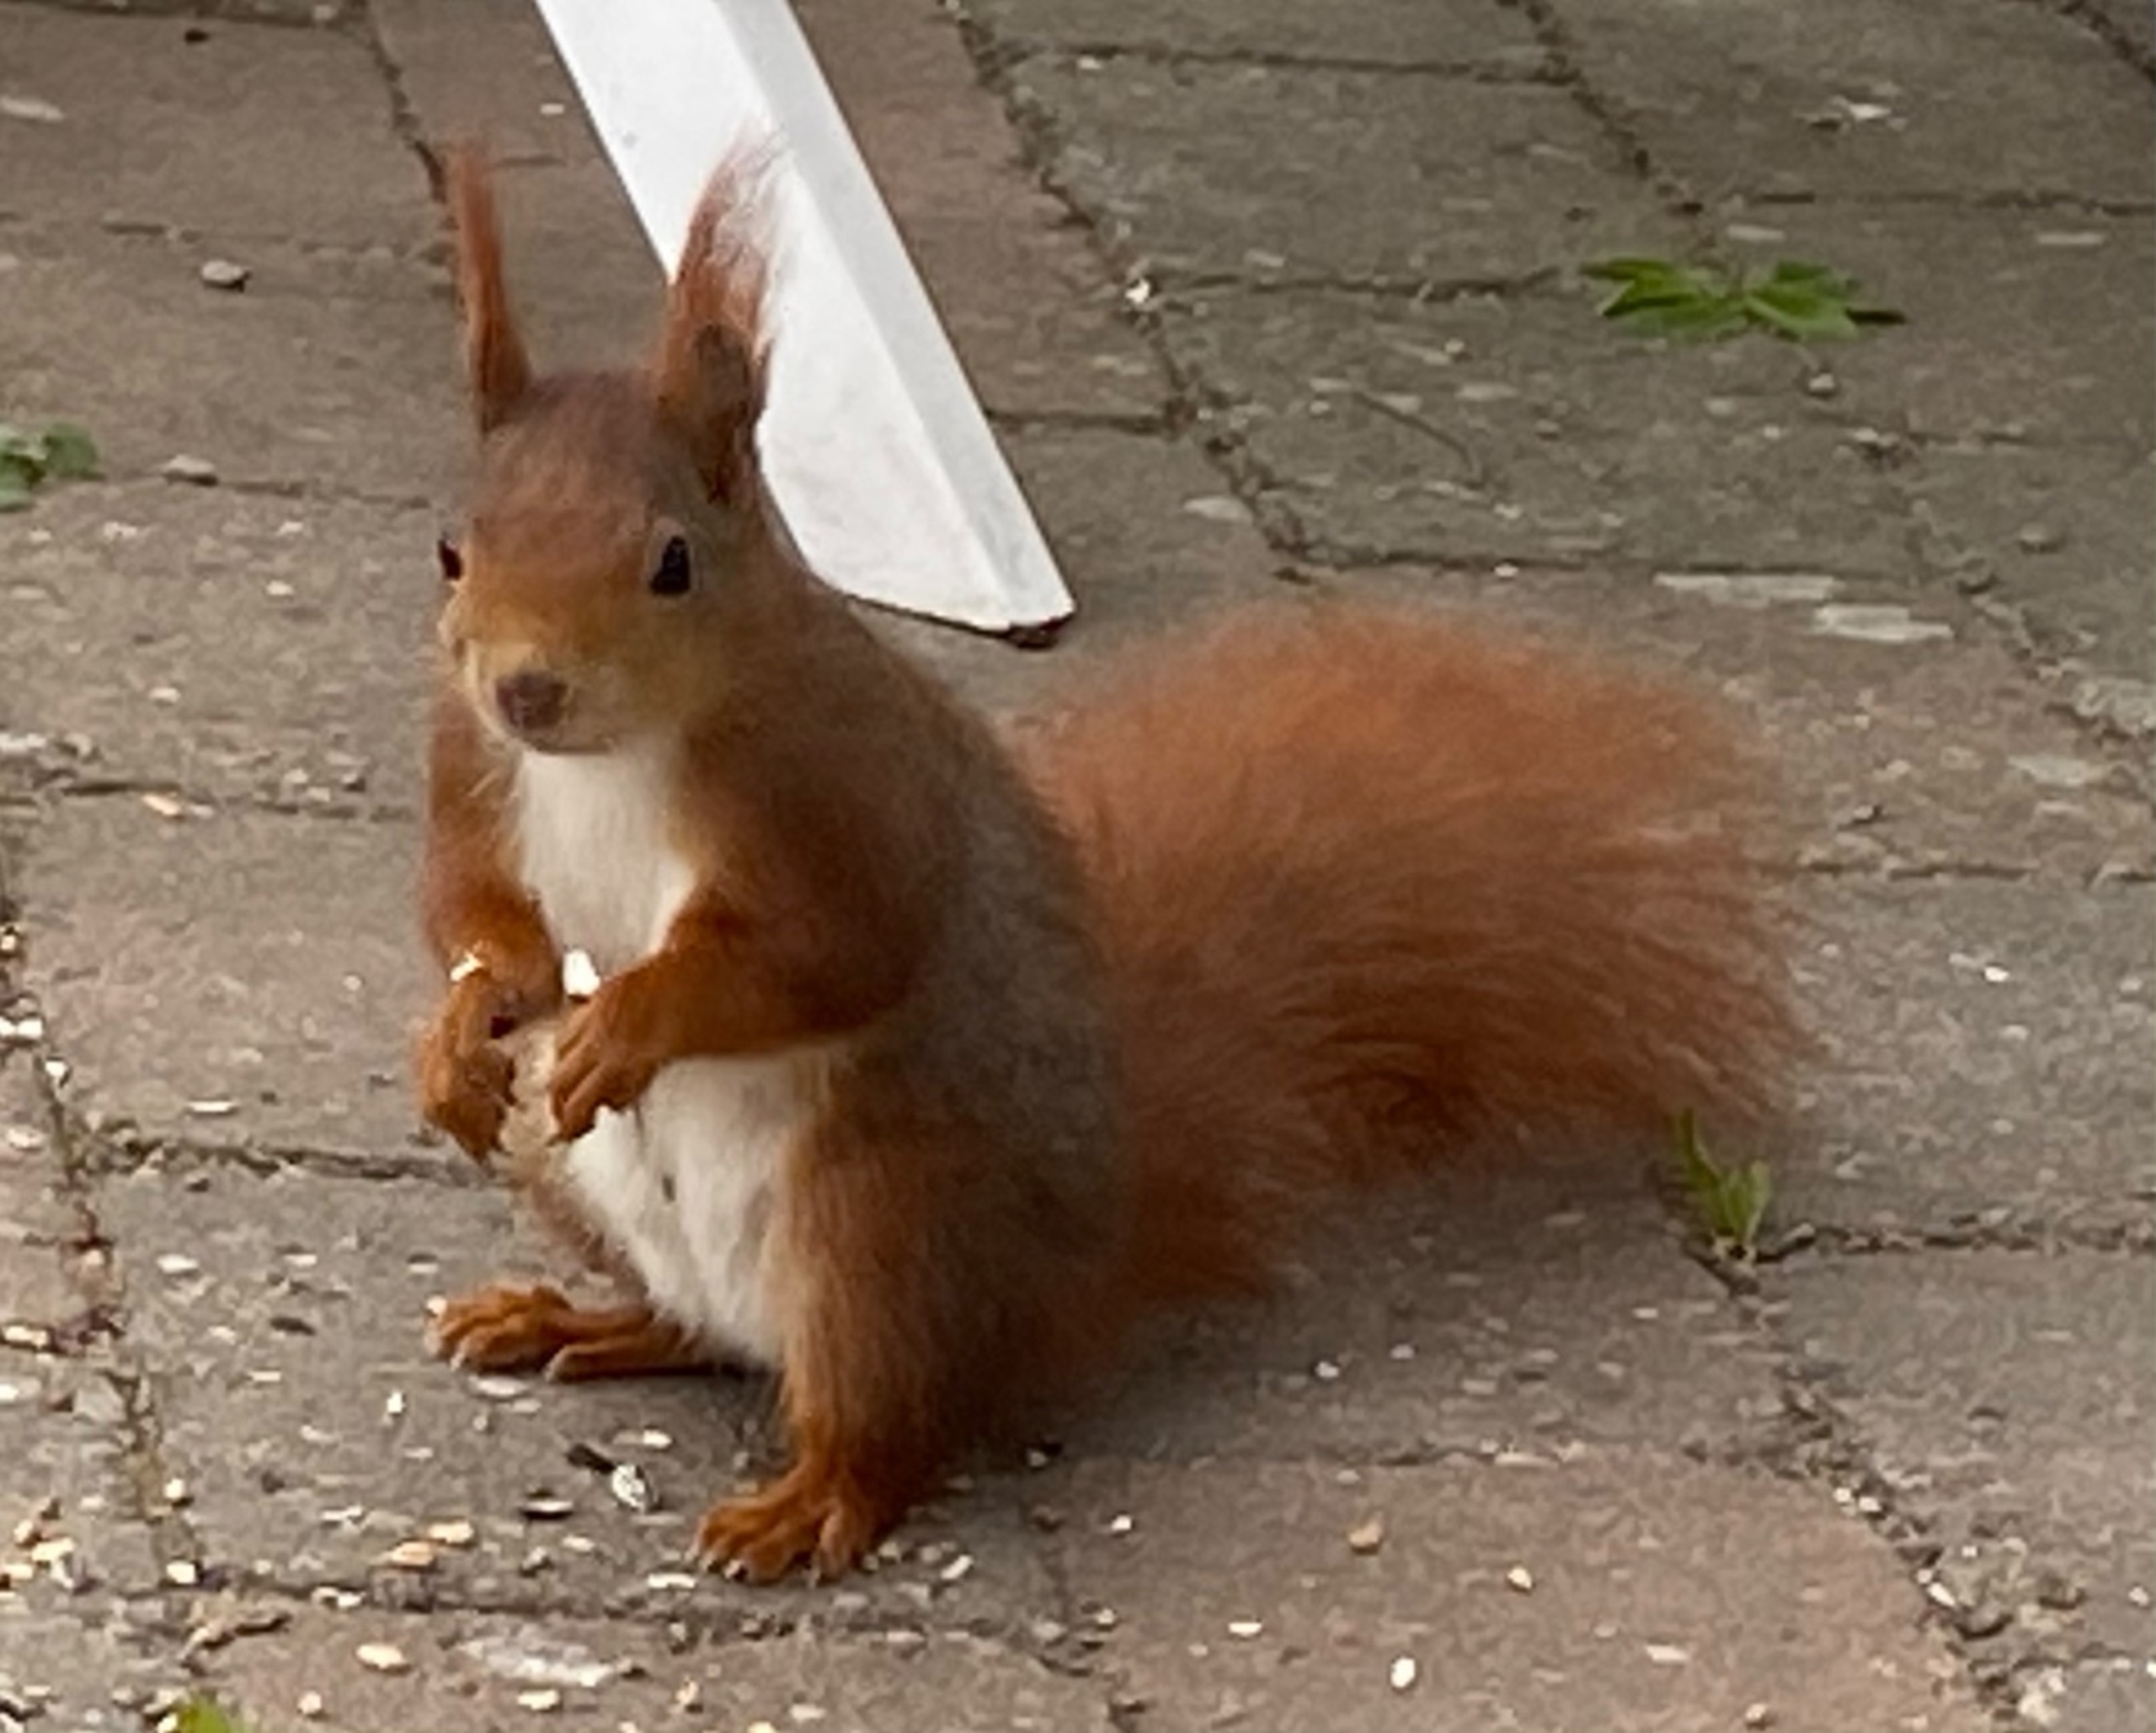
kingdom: Animalia
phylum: Chordata
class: Mammalia
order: Rodentia
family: Sciuridae
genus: Sciurus
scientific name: Sciurus vulgaris
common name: Egern
